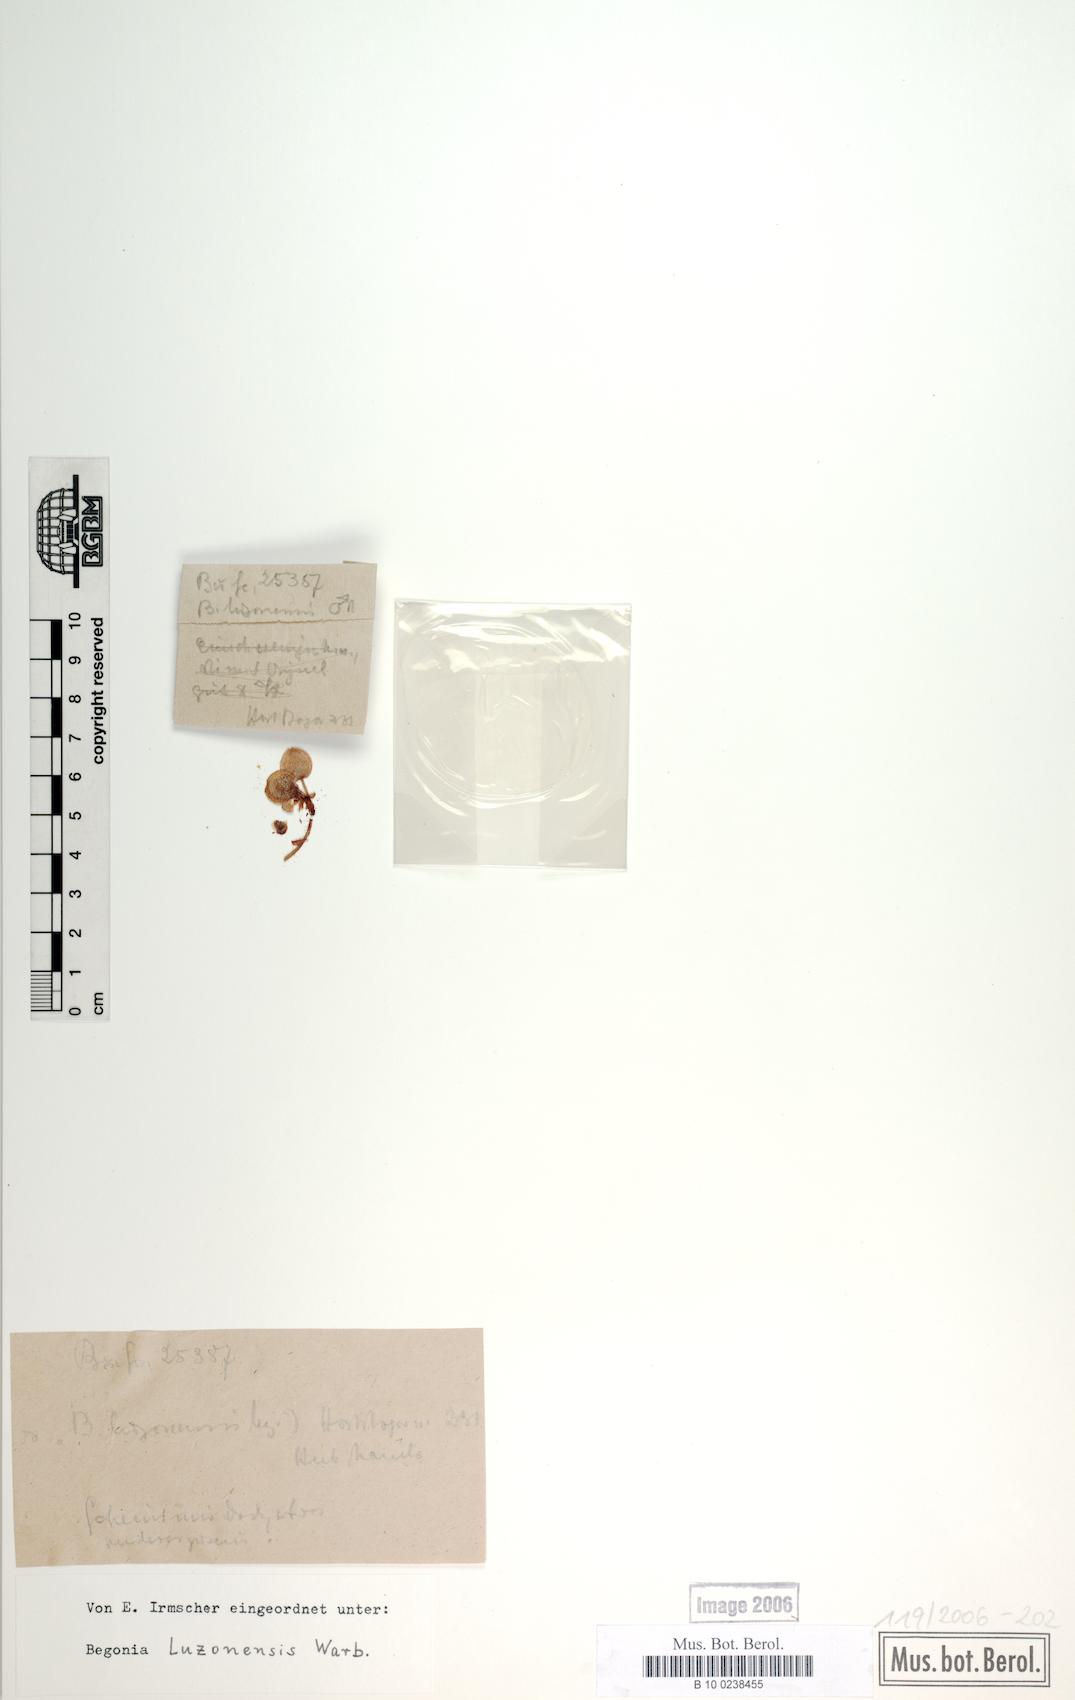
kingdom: Plantae
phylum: Tracheophyta
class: Magnoliopsida
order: Cucurbitales
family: Begoniaceae
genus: Begonia
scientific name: Begonia luzonensis
